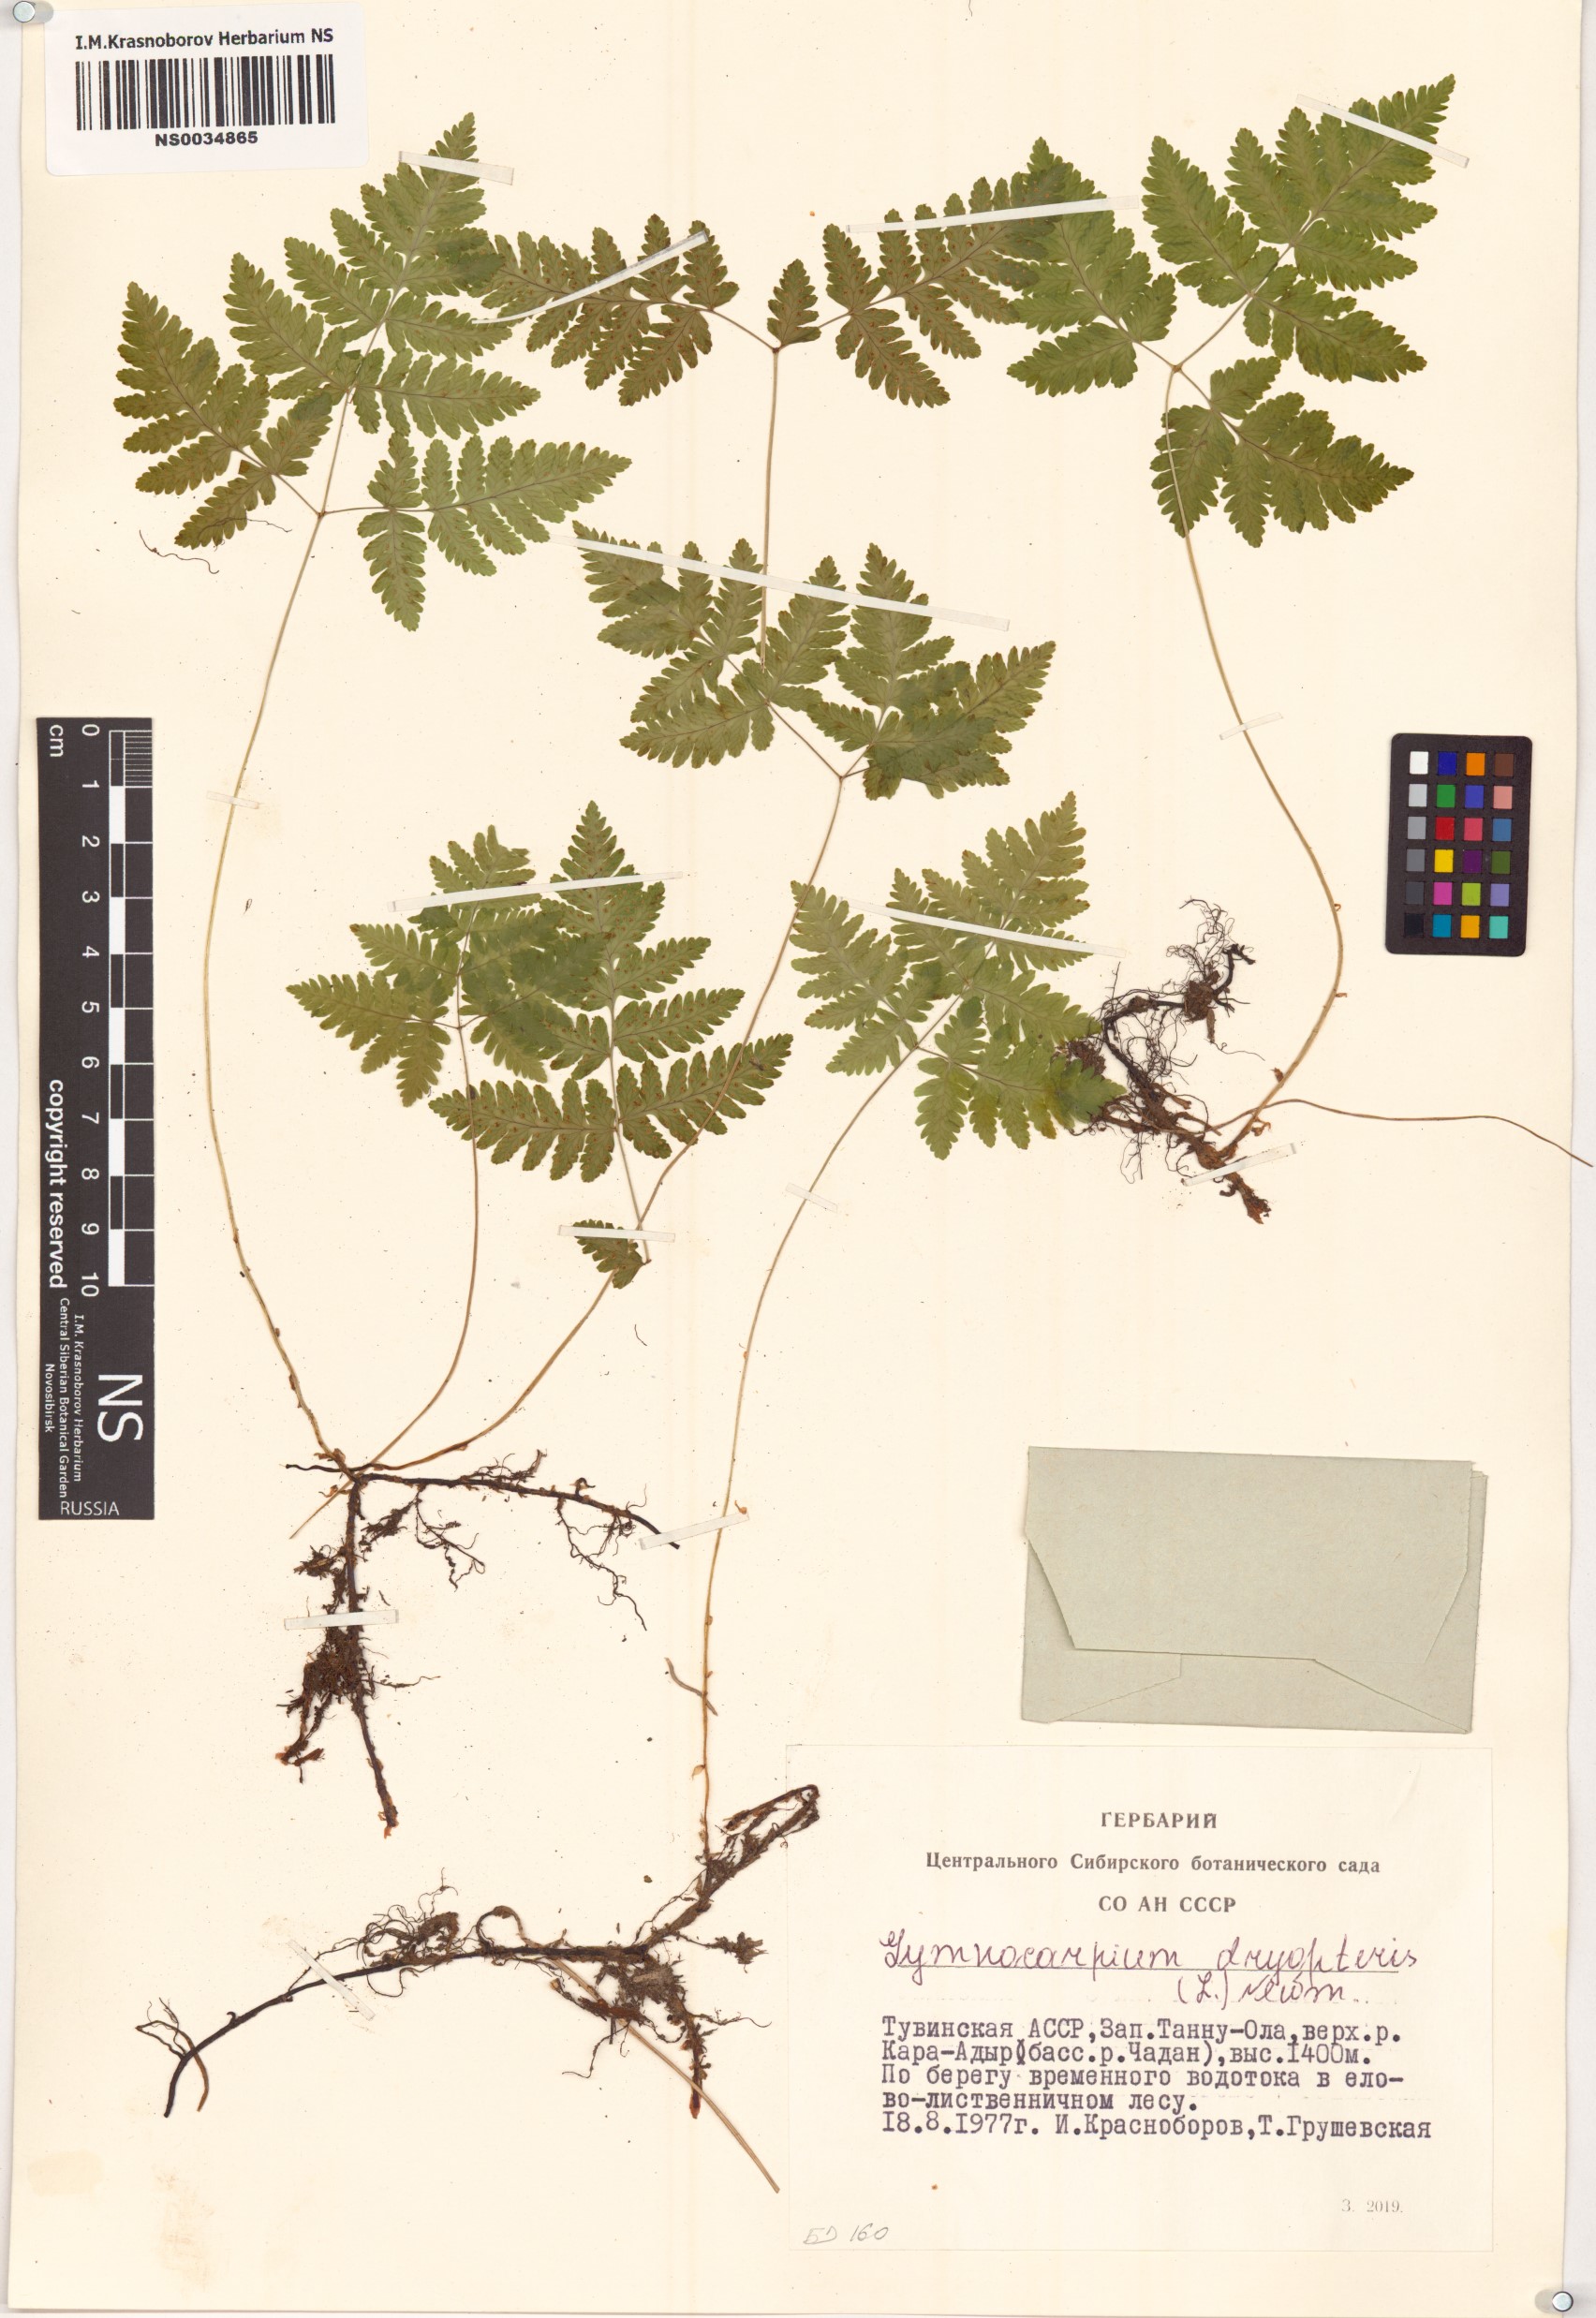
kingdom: Plantae
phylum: Tracheophyta
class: Polypodiopsida
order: Polypodiales
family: Cystopteridaceae
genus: Gymnocarpium
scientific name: Gymnocarpium dryopteris
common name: Oak fern
